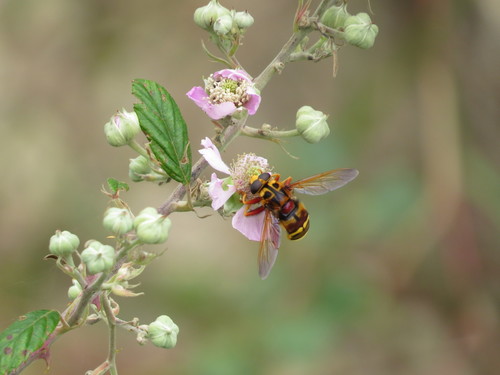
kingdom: Animalia
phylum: Arthropoda
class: Insecta
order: Diptera
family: Syrphidae
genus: Milesia
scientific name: Milesia crabroniformis
